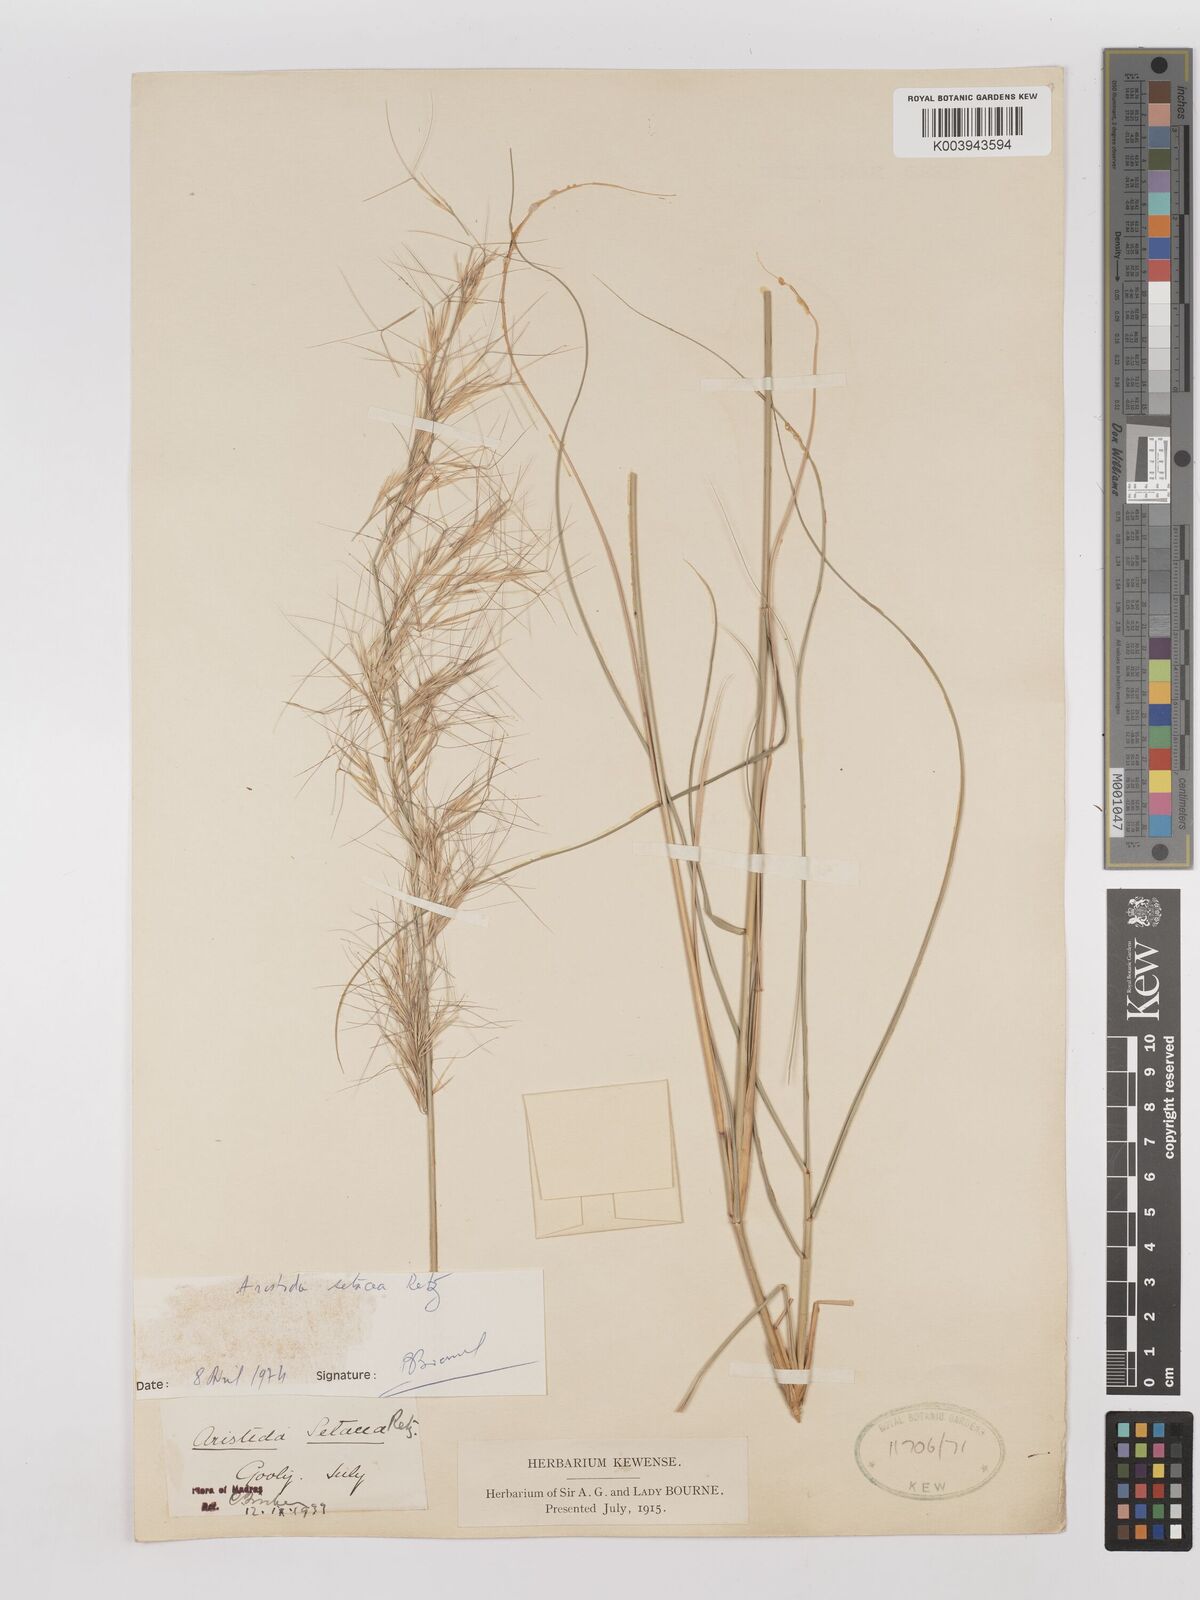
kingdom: Plantae
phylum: Tracheophyta
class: Liliopsida
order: Poales
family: Poaceae
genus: Aristida
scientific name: Aristida setacea
